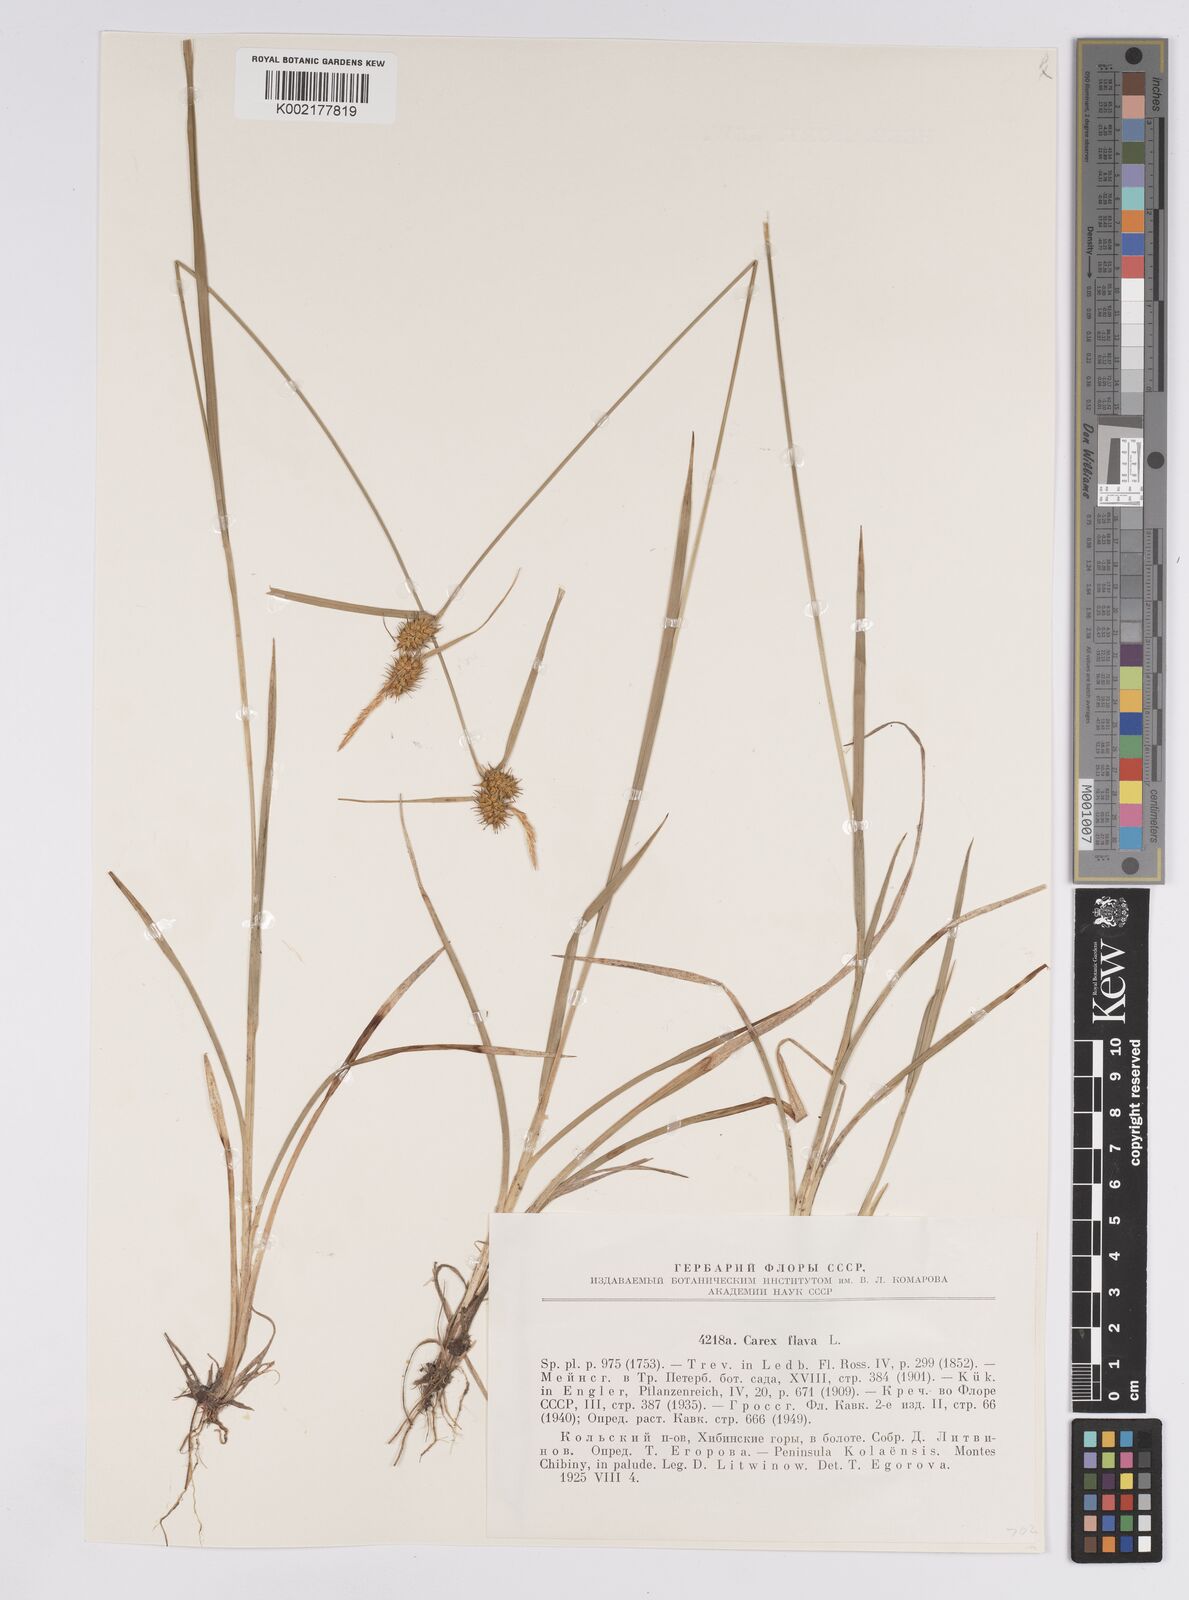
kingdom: Plantae
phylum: Tracheophyta
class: Liliopsida
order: Poales
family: Cyperaceae
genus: Carex
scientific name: Carex flava
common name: Large yellow-sedge
